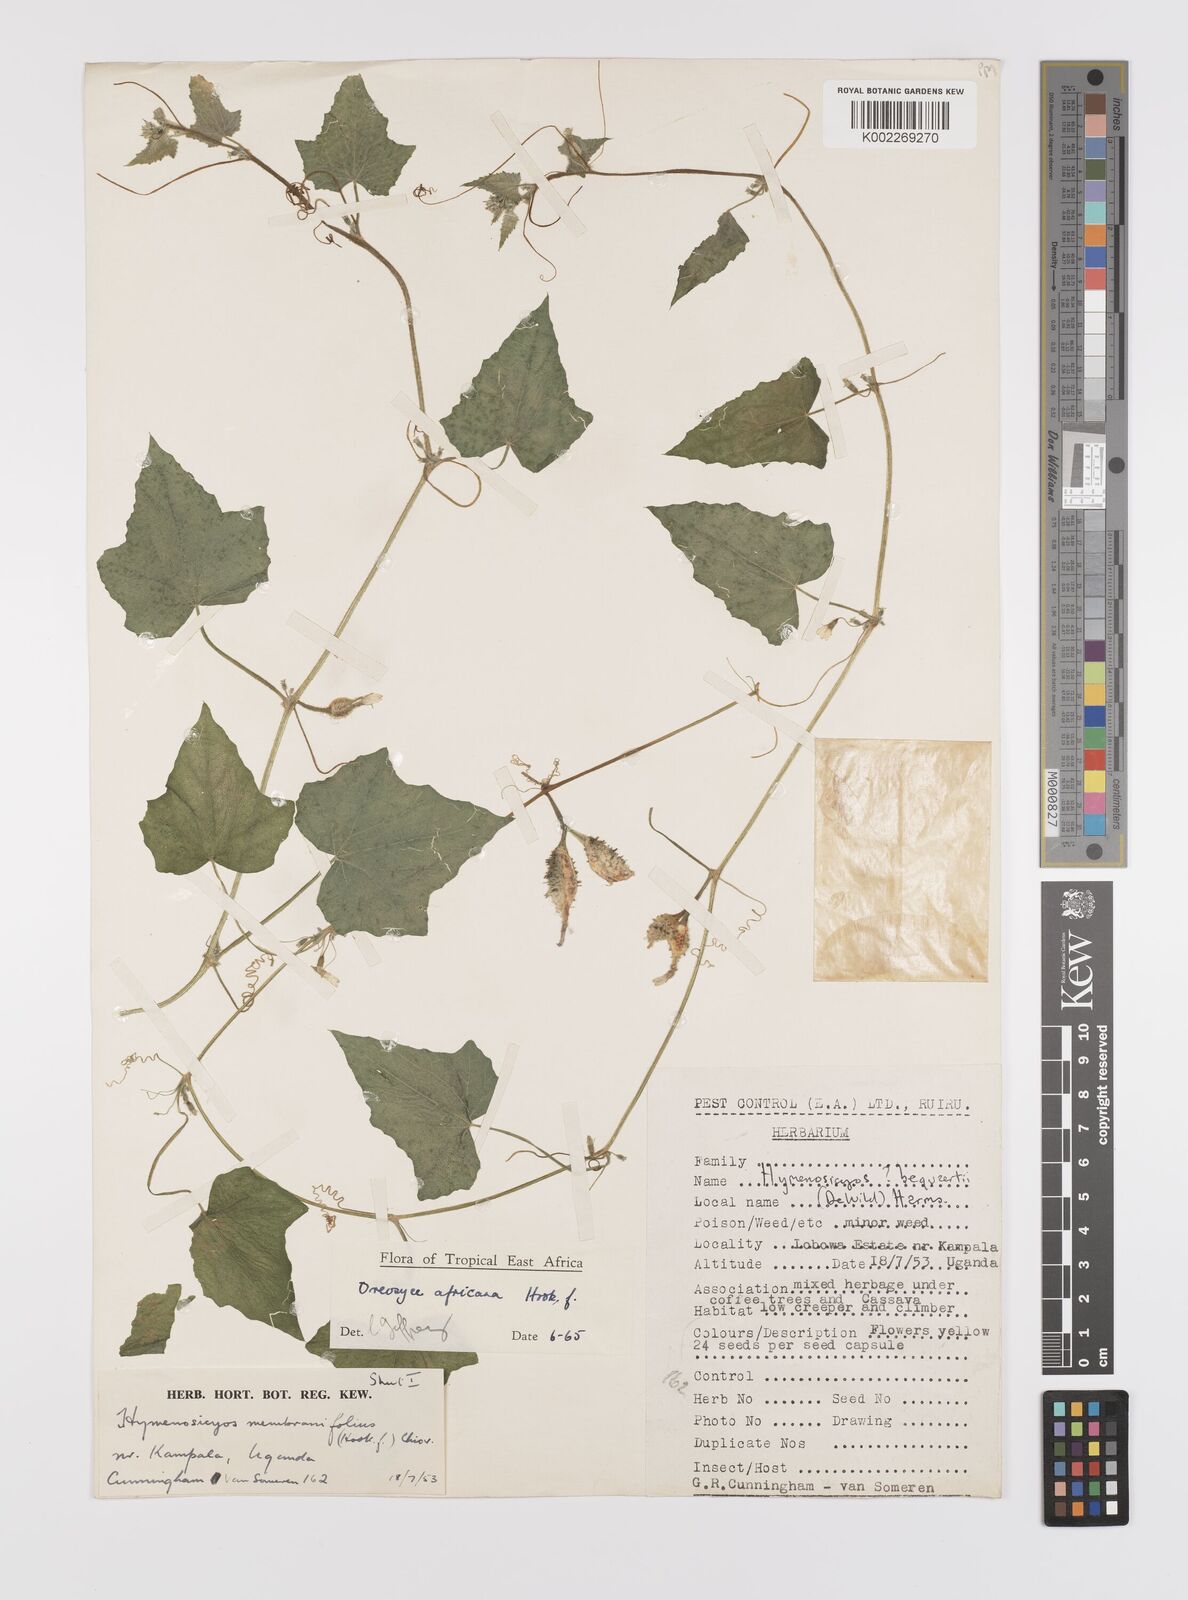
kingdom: Plantae
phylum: Tracheophyta
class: Magnoliopsida
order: Cucurbitales
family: Cucurbitaceae
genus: Cucumis
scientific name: Cucumis oreosyce
